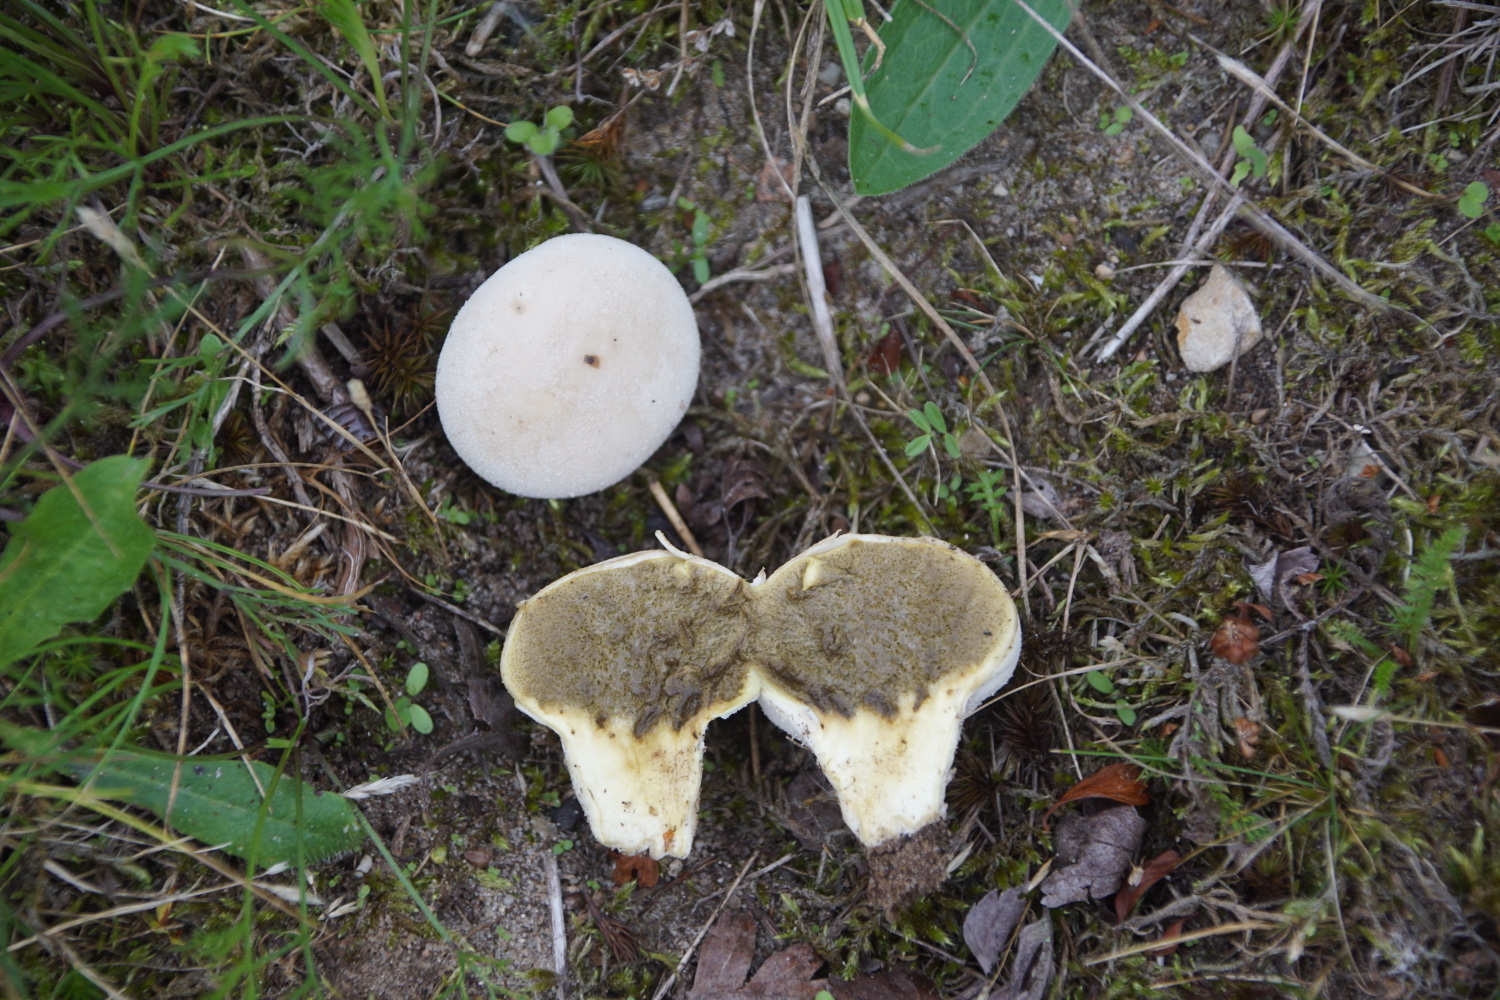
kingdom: Fungi
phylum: Basidiomycota
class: Agaricomycetes
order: Agaricales
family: Lycoperdaceae
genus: Lycoperdon
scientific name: Lycoperdon pratense
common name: flad støvbold
